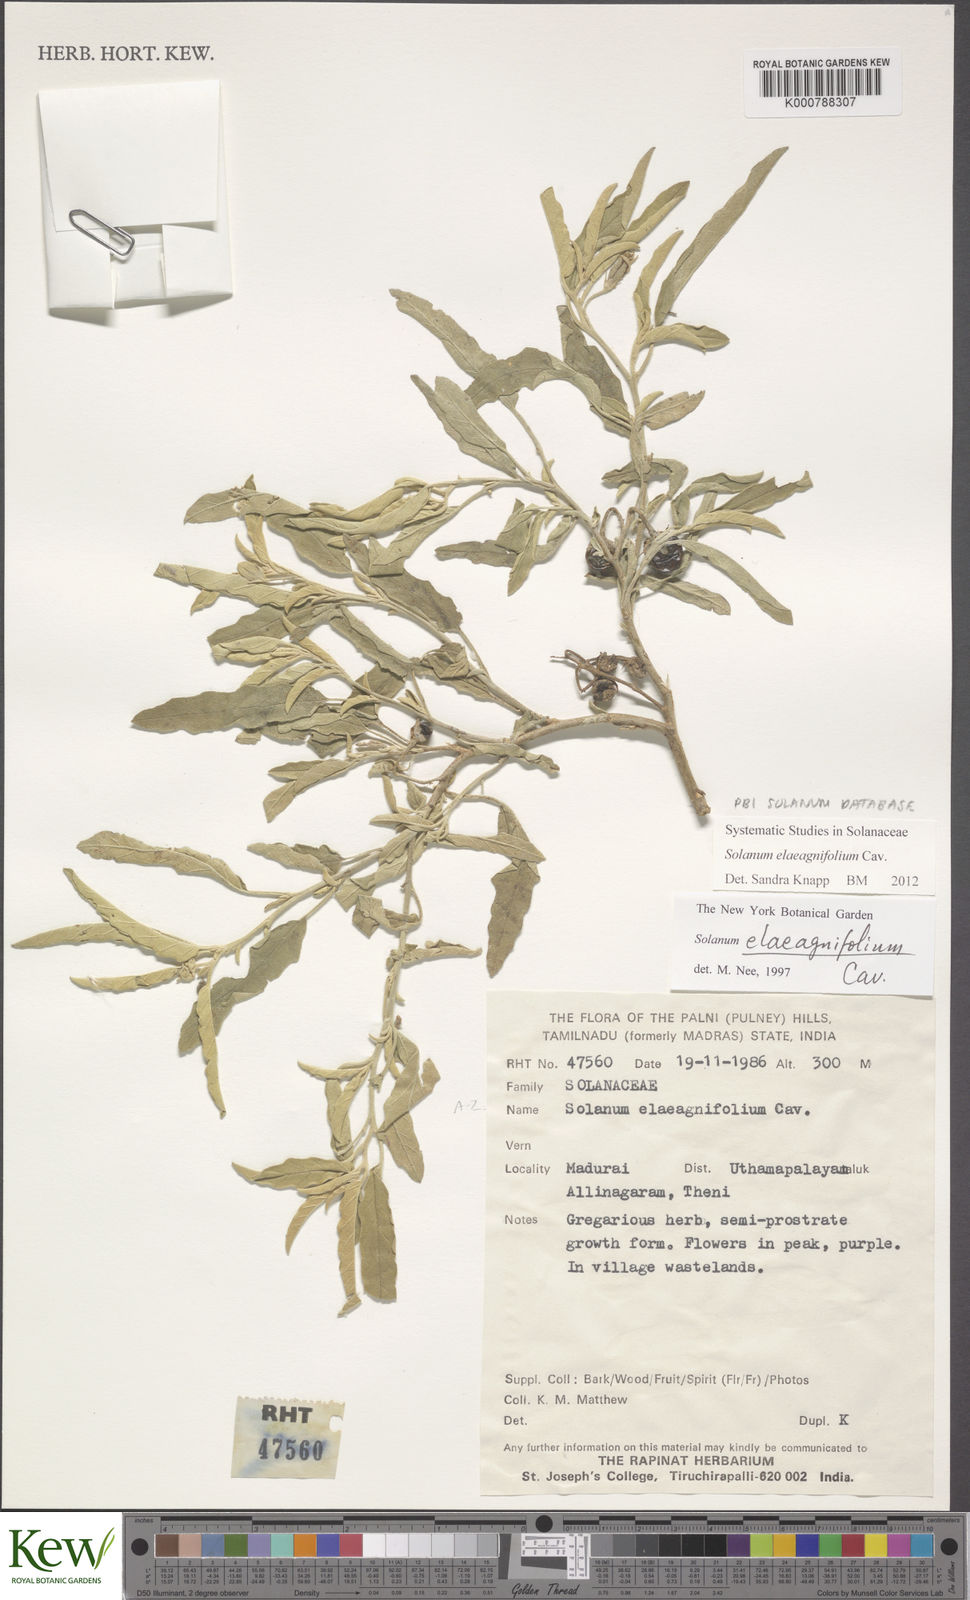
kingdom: Plantae
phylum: Tracheophyta
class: Magnoliopsida
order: Solanales
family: Solanaceae
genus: Solanum
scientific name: Solanum elaeagnifolium
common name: Silverleaf nightshade
